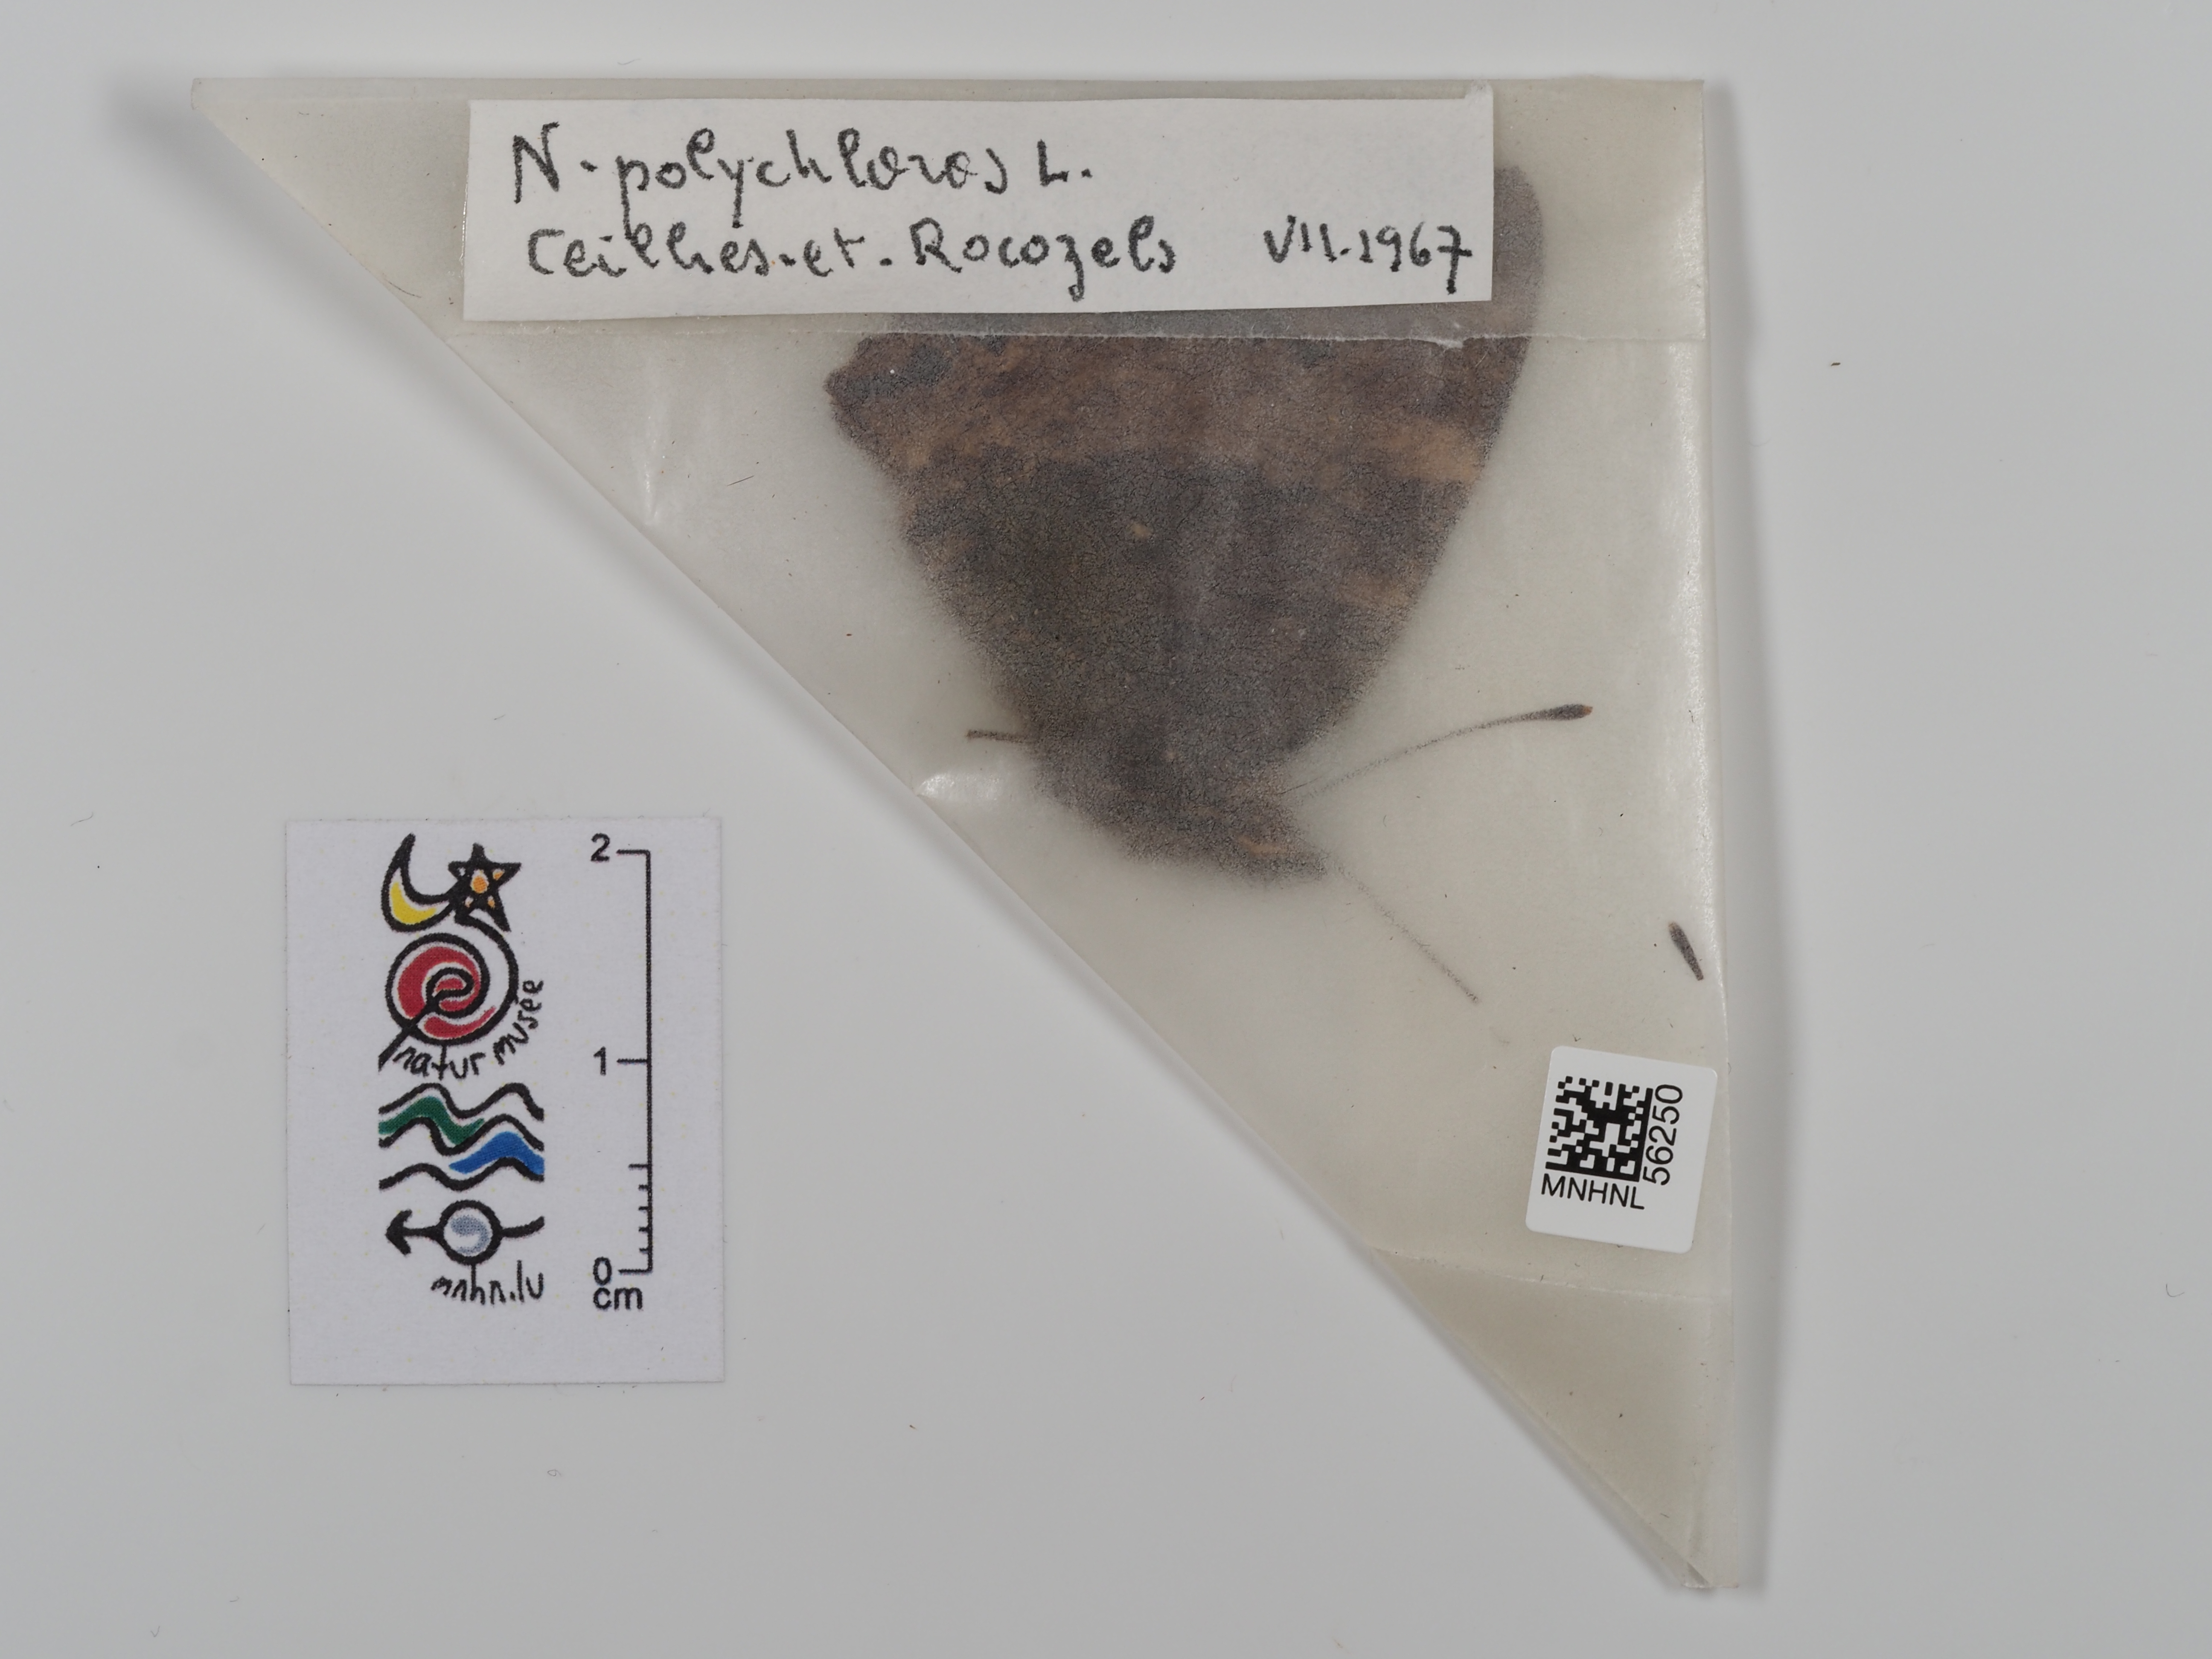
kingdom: Animalia
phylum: Arthropoda
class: Insecta
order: Lepidoptera
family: Nymphalidae
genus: Nymphalis
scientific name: Nymphalis polychloros
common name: Large tortoiseshell
